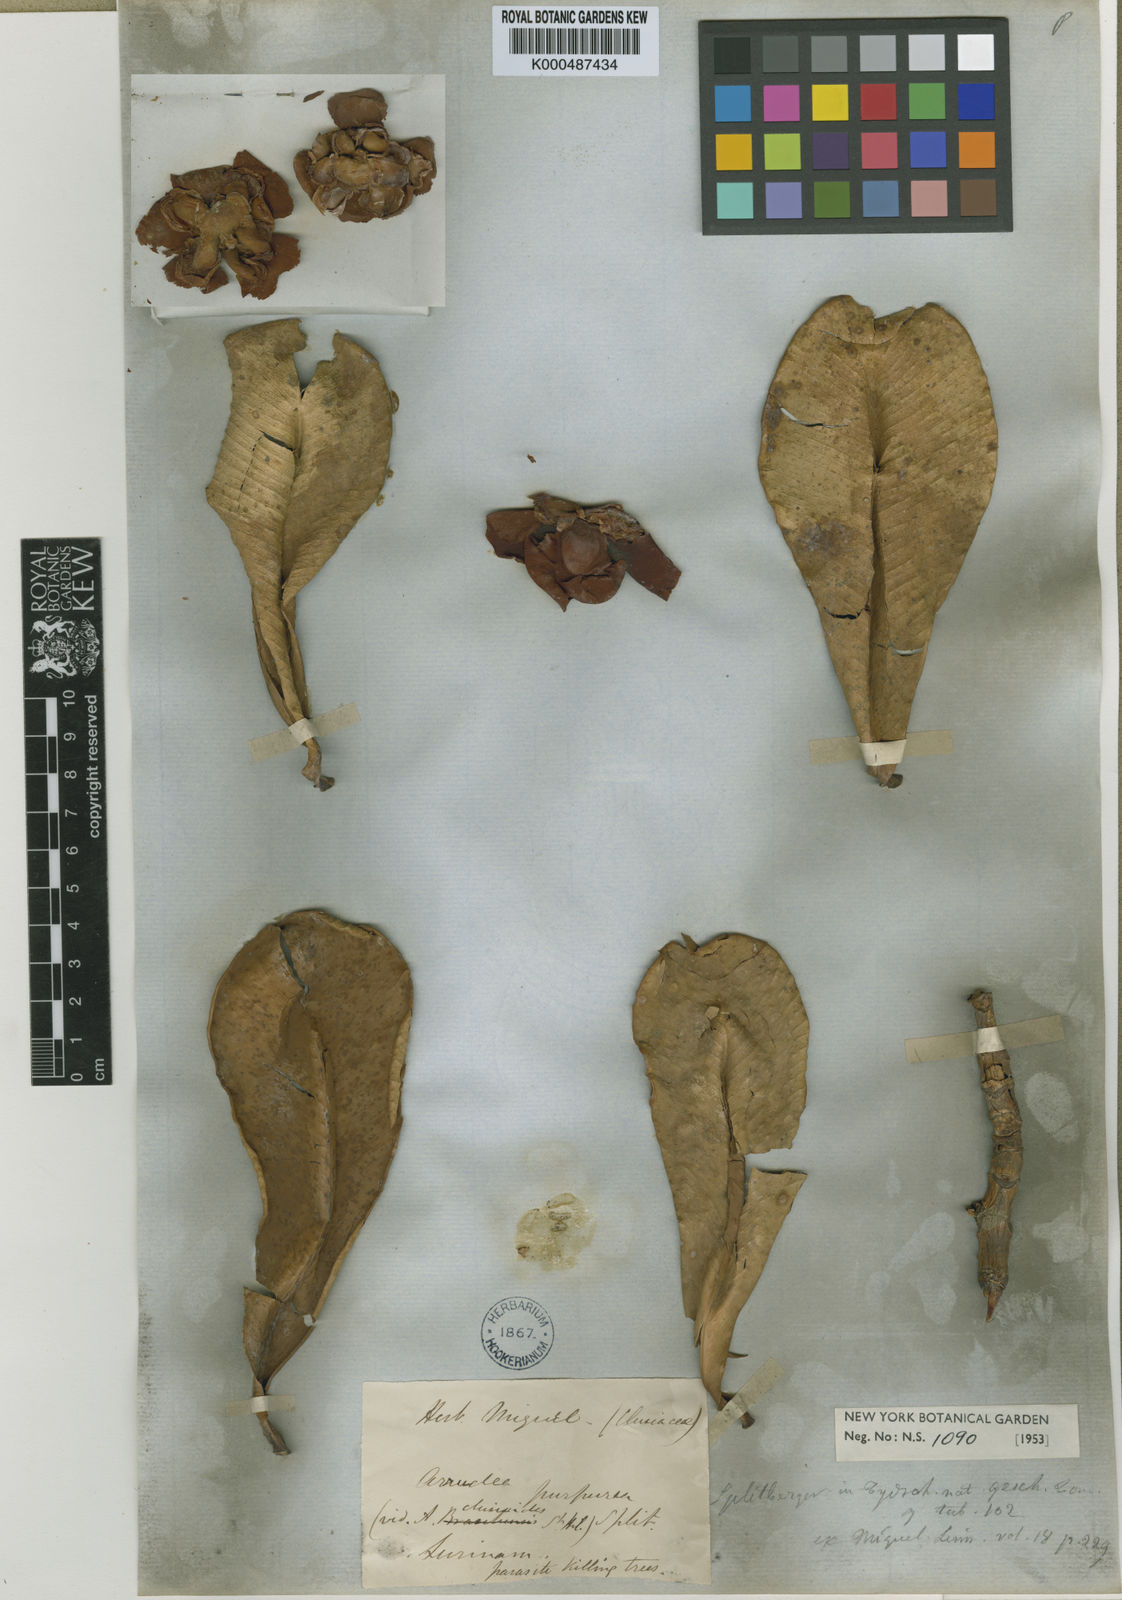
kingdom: Plantae
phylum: Tracheophyta
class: Magnoliopsida
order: Malpighiales
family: Clusiaceae
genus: Clusia
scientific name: Clusia purpurea
